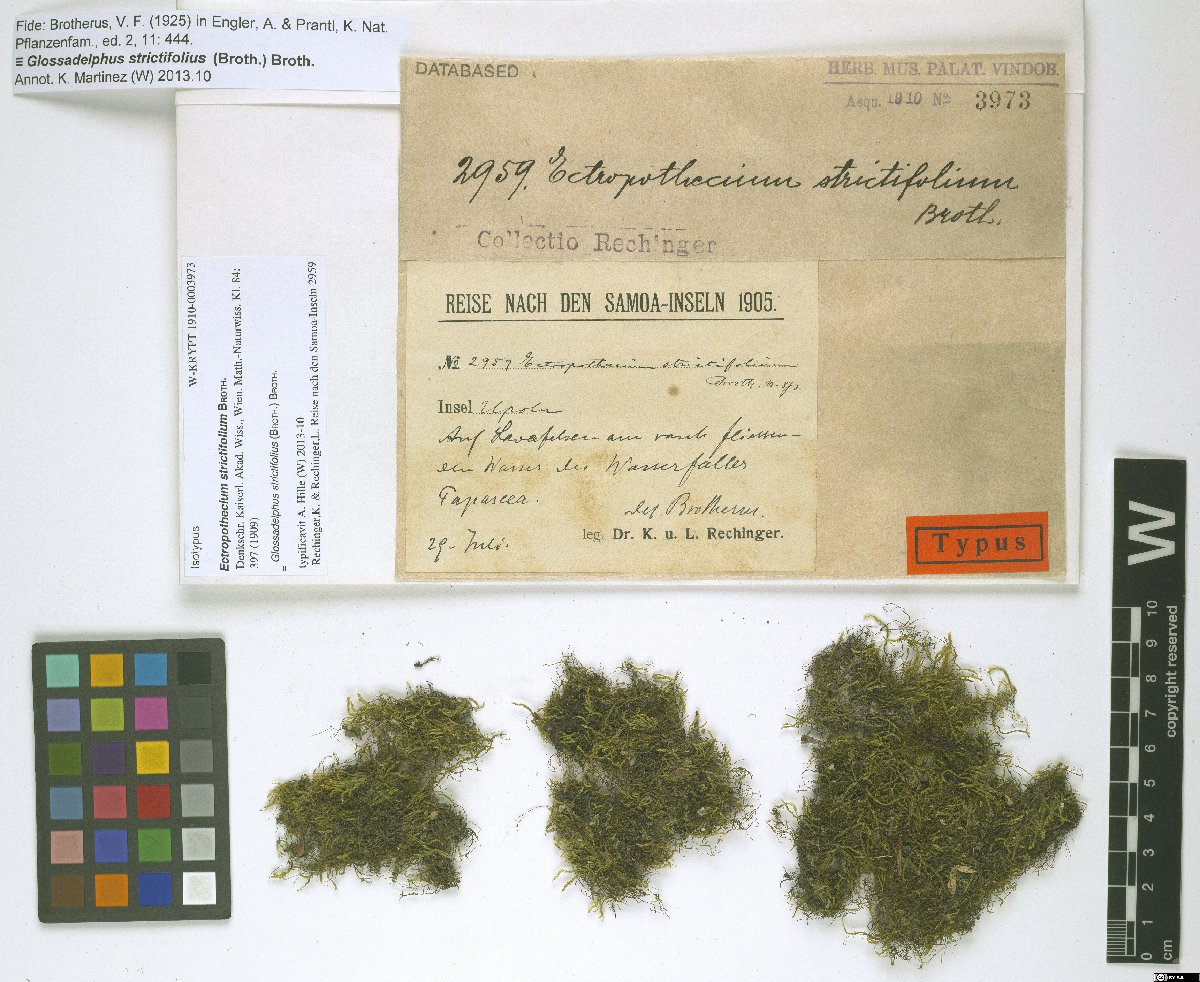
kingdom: Plantae
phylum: Bryophyta
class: Bryopsida
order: Hypnales
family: Hypnaceae
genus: Glossadelphus
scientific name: Glossadelphus strictifolius
